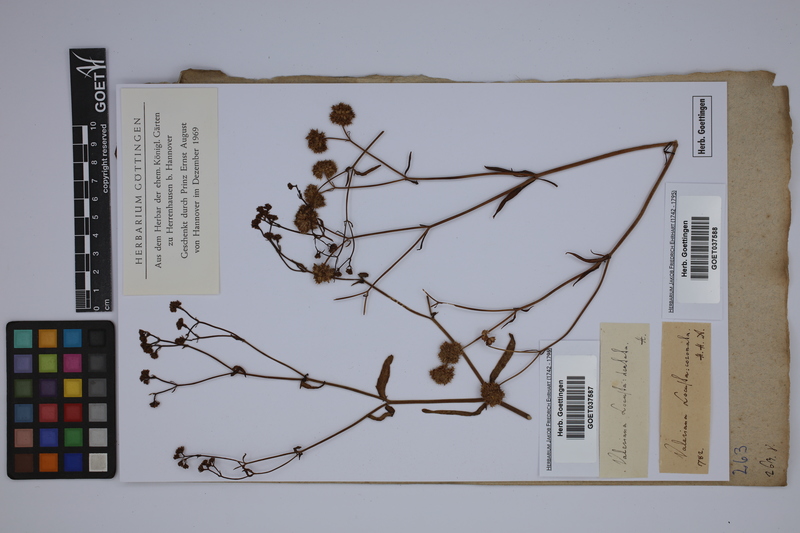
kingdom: Plantae
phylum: Tracheophyta
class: Magnoliopsida
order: Dipsacales
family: Caprifoliaceae
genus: Valerianella
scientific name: Valerianella coronata
